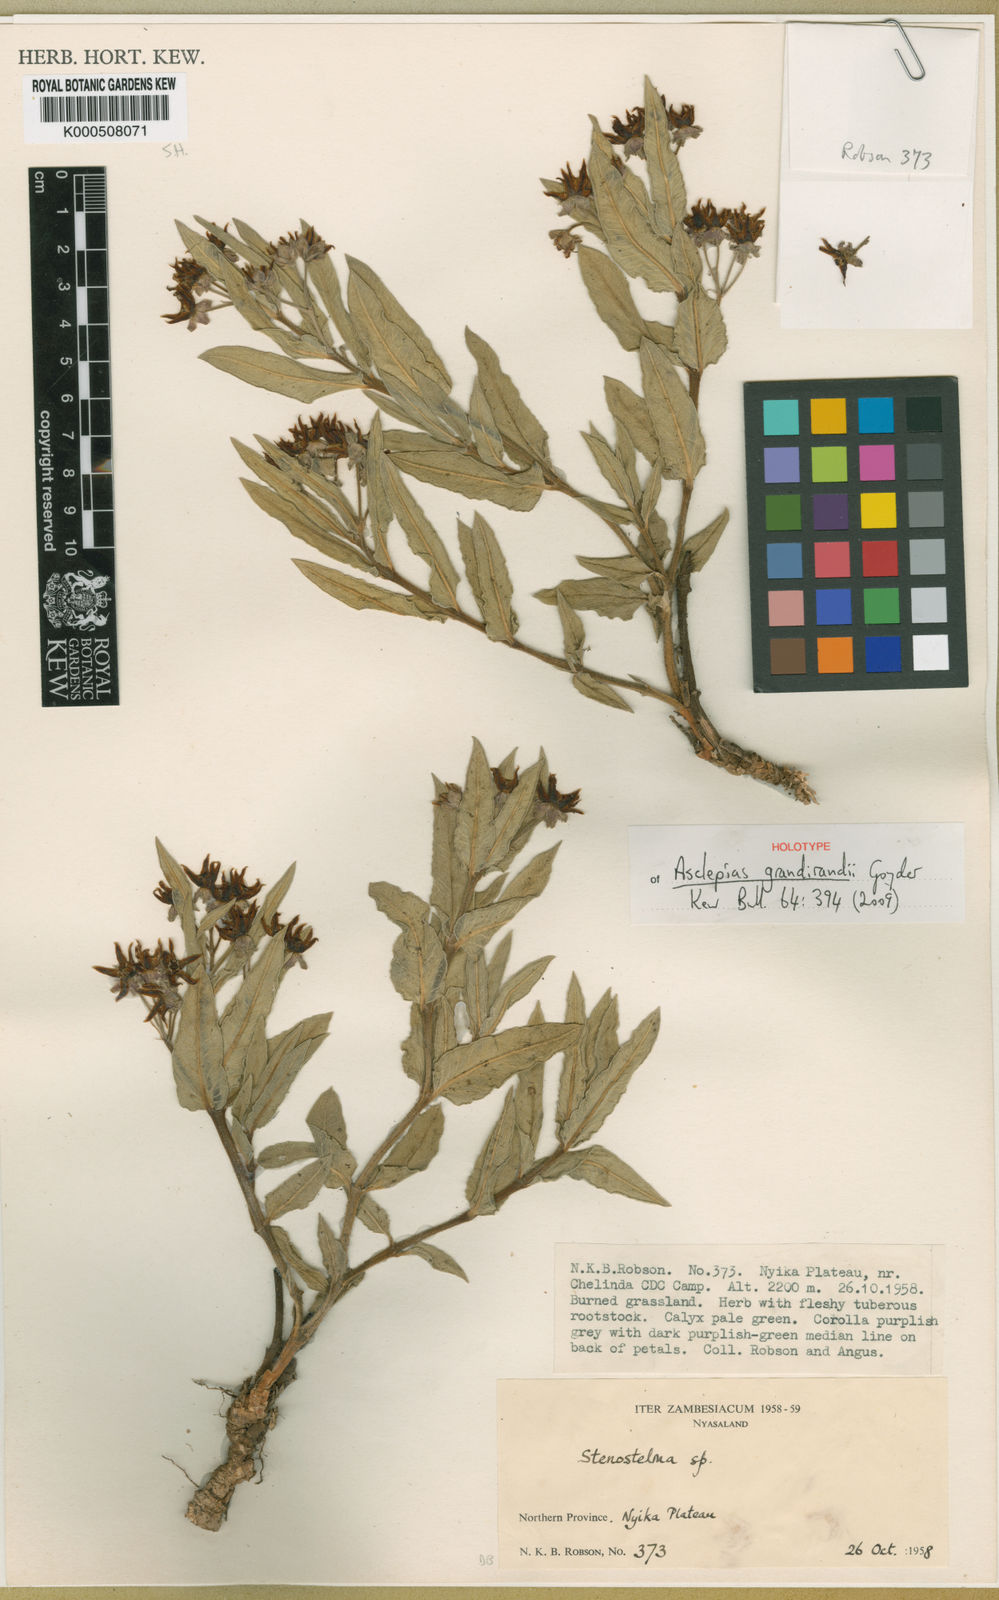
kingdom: Plantae
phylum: Tracheophyta
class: Magnoliopsida
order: Gentianales
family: Apocynaceae
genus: Asclepias
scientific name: Asclepias grandirandii
